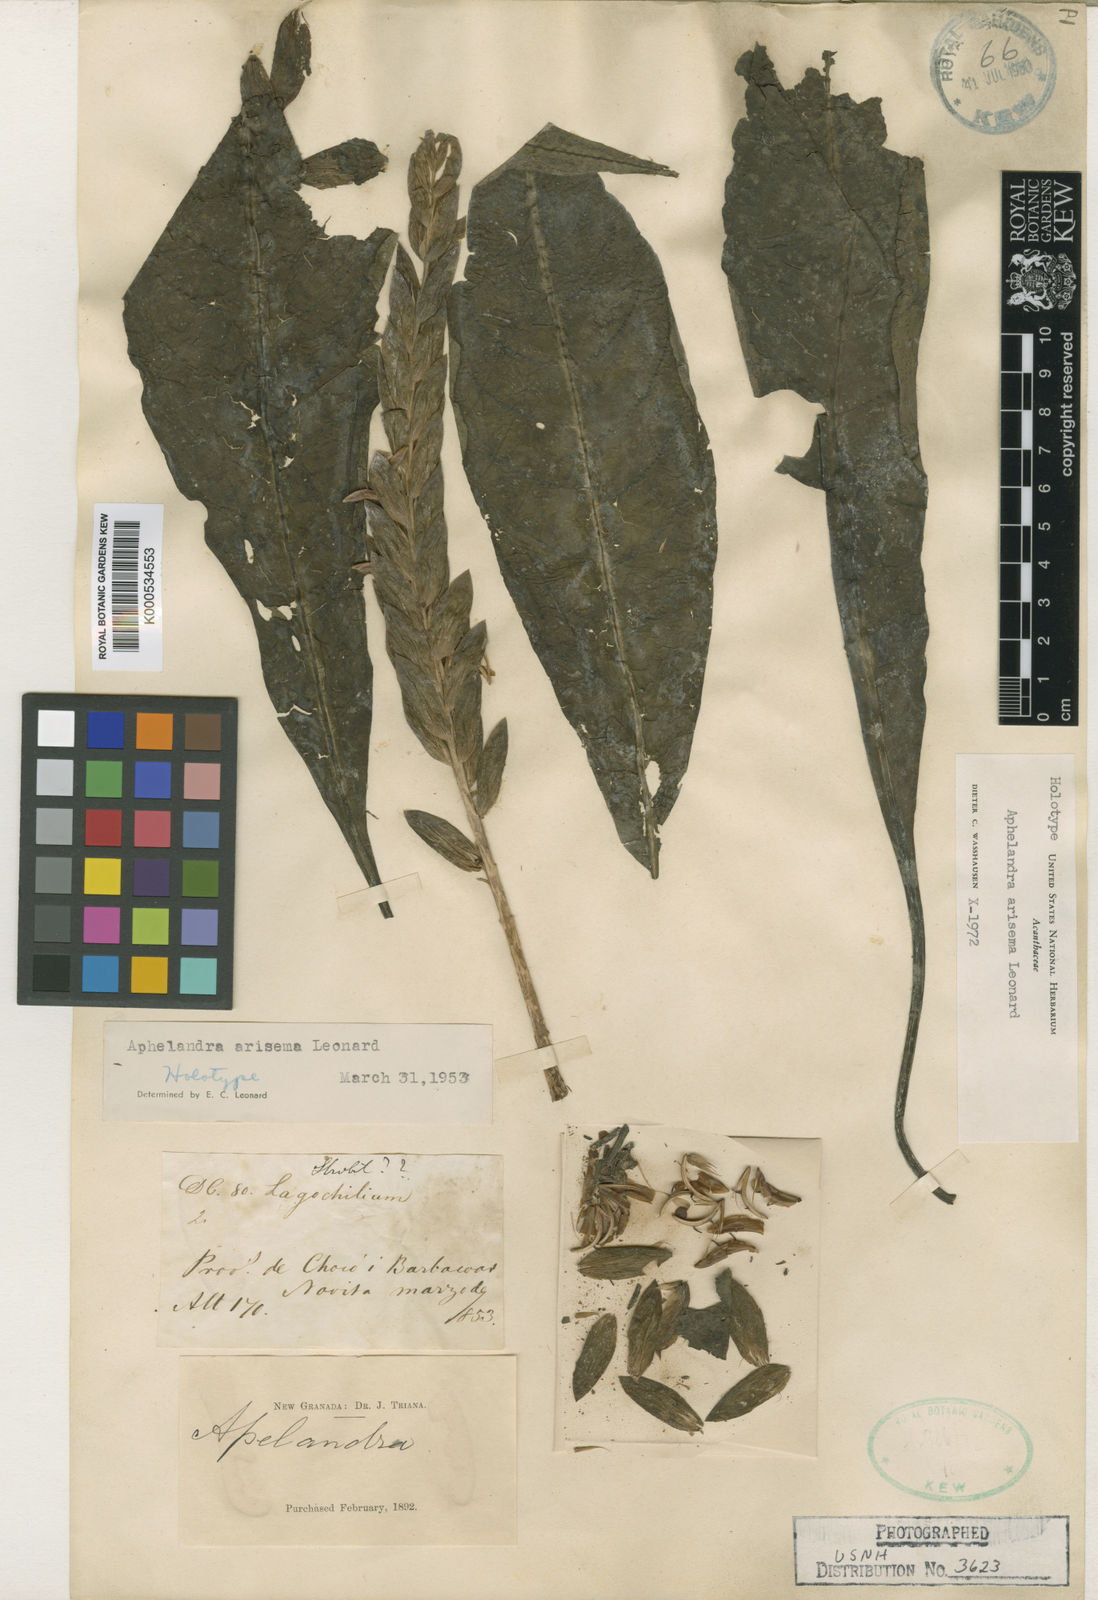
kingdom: Plantae
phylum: Tracheophyta
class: Magnoliopsida
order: Lamiales
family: Acanthaceae
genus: Aphelandra
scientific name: Aphelandra arisema
